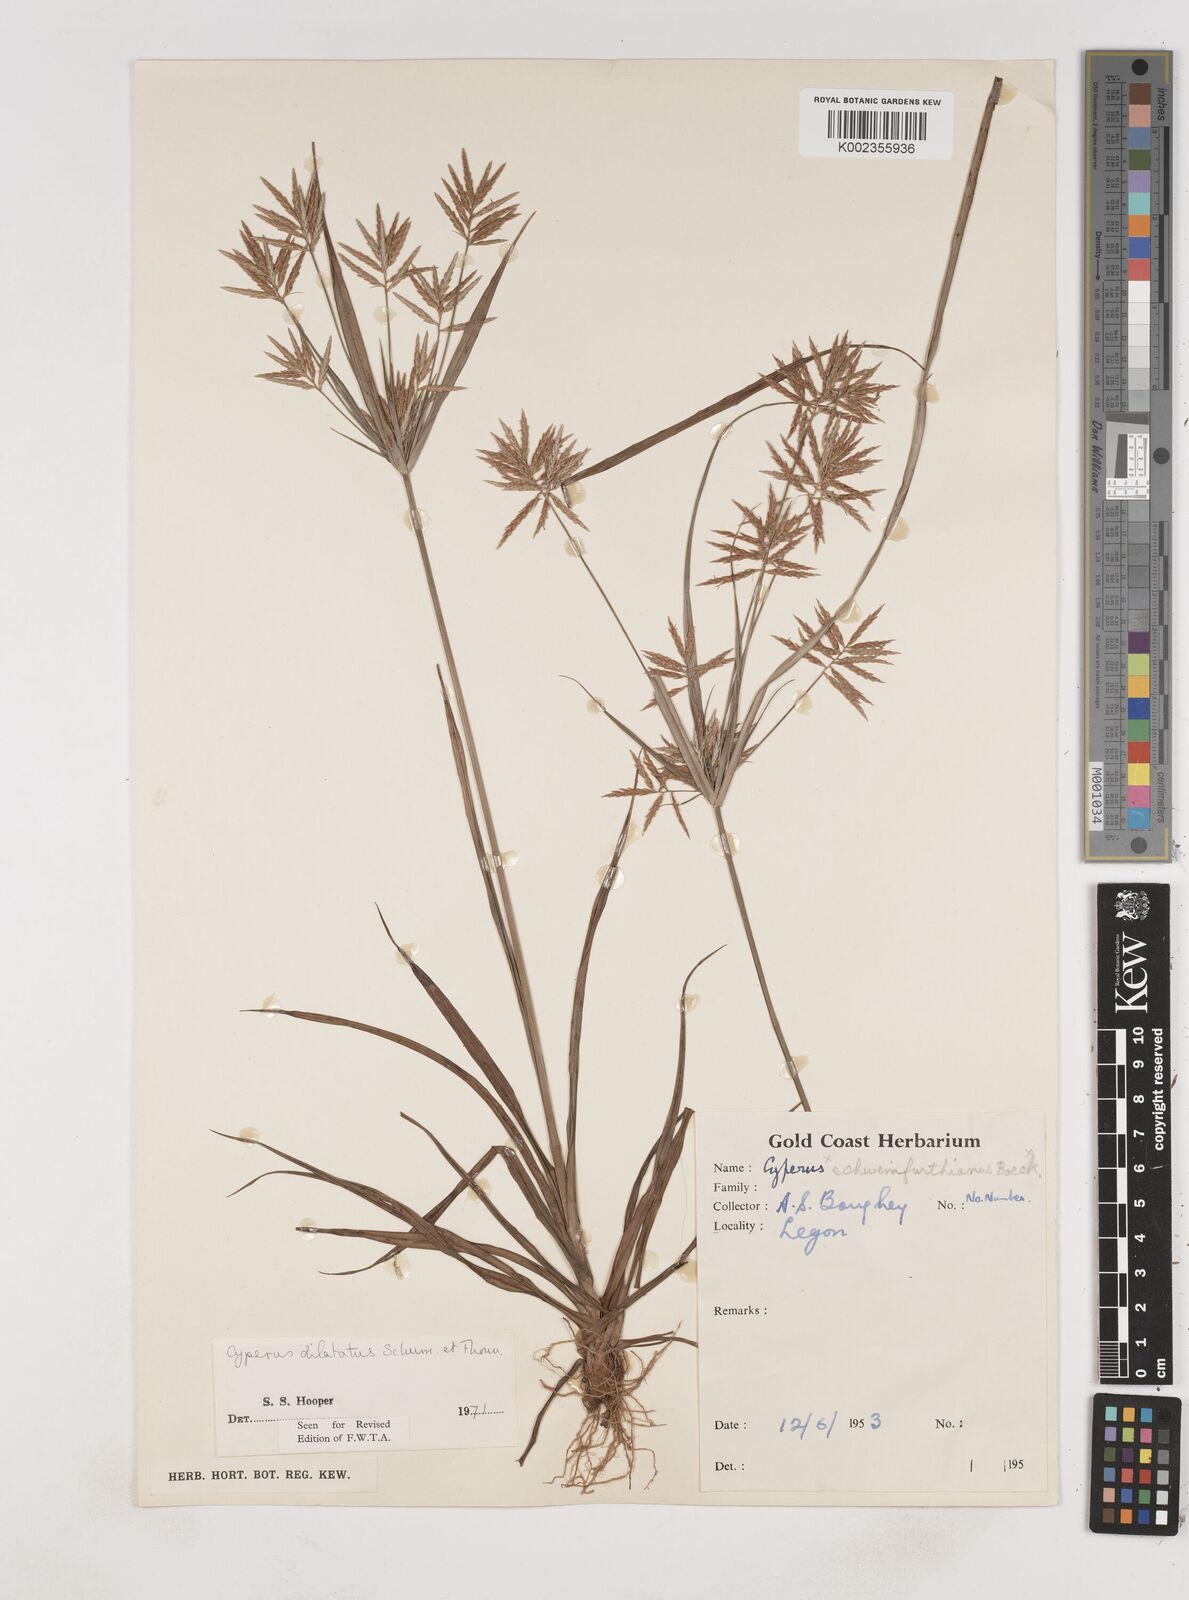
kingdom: Plantae
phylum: Tracheophyta
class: Liliopsida
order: Poales
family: Cyperaceae
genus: Cyperus
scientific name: Cyperus dilatatus
